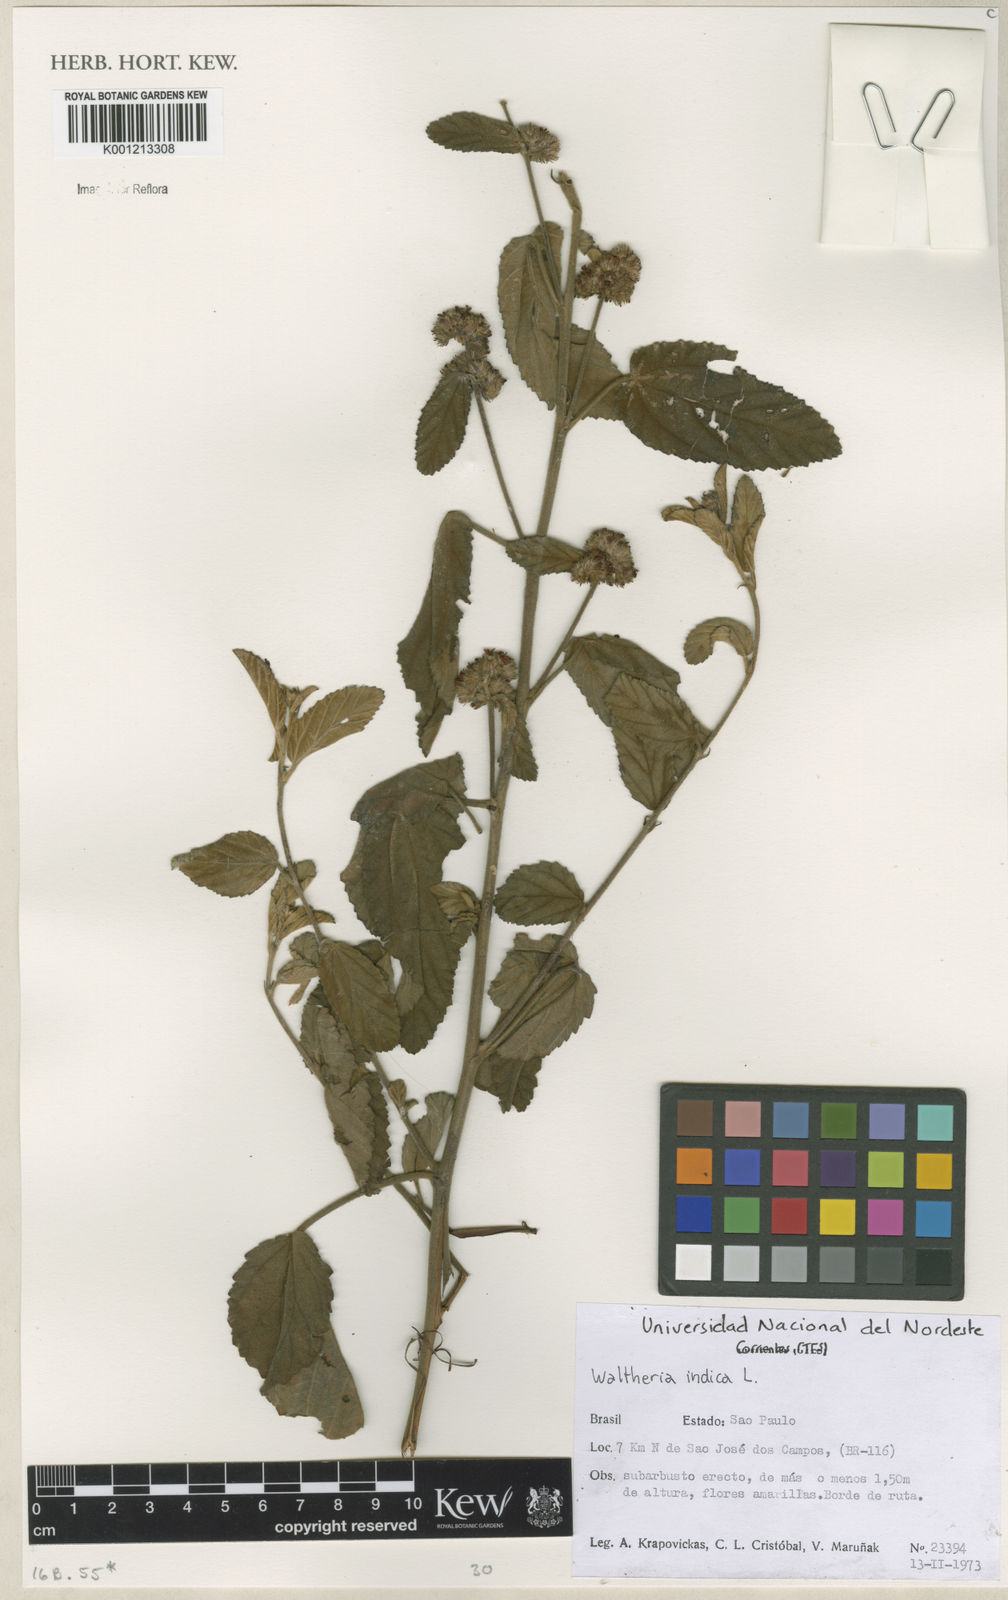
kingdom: Plantae
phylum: Tracheophyta
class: Magnoliopsida
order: Malvales
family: Malvaceae
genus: Waltheria
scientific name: Waltheria indica
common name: Leather-coat
